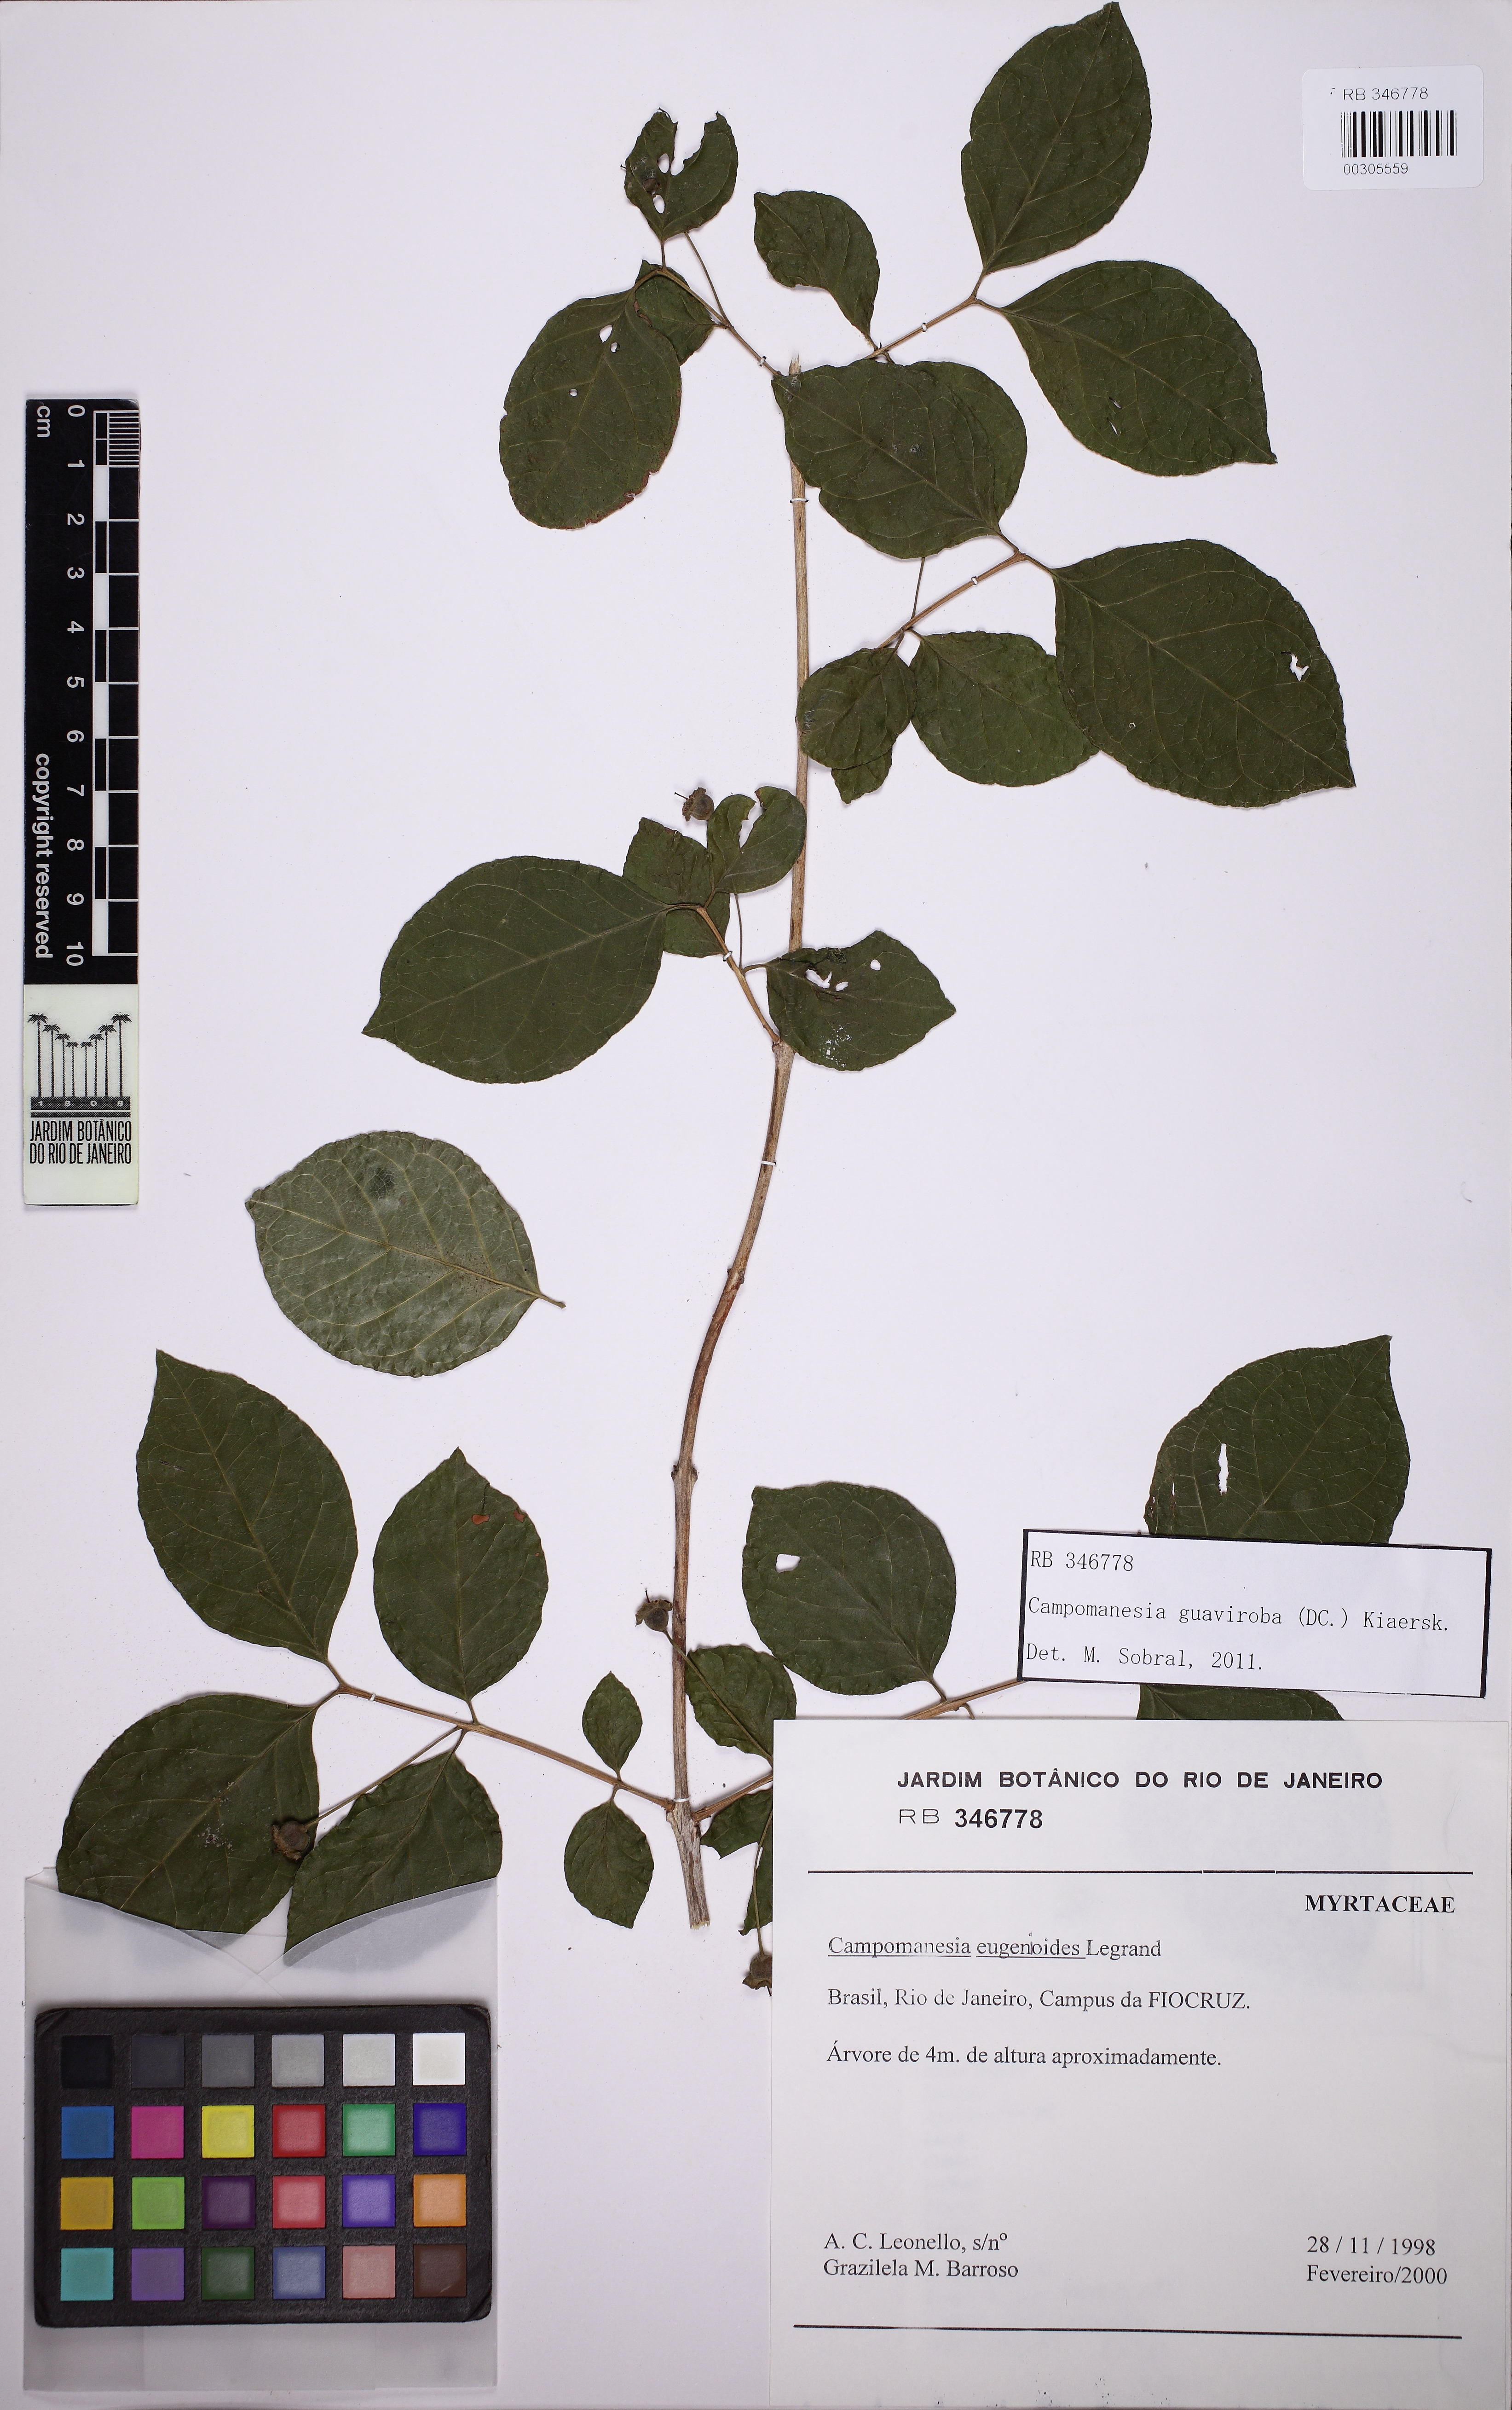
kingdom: Plantae
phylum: Tracheophyta
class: Magnoliopsida
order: Myrtales
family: Myrtaceae
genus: Campomanesia
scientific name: Campomanesia guaviroba
